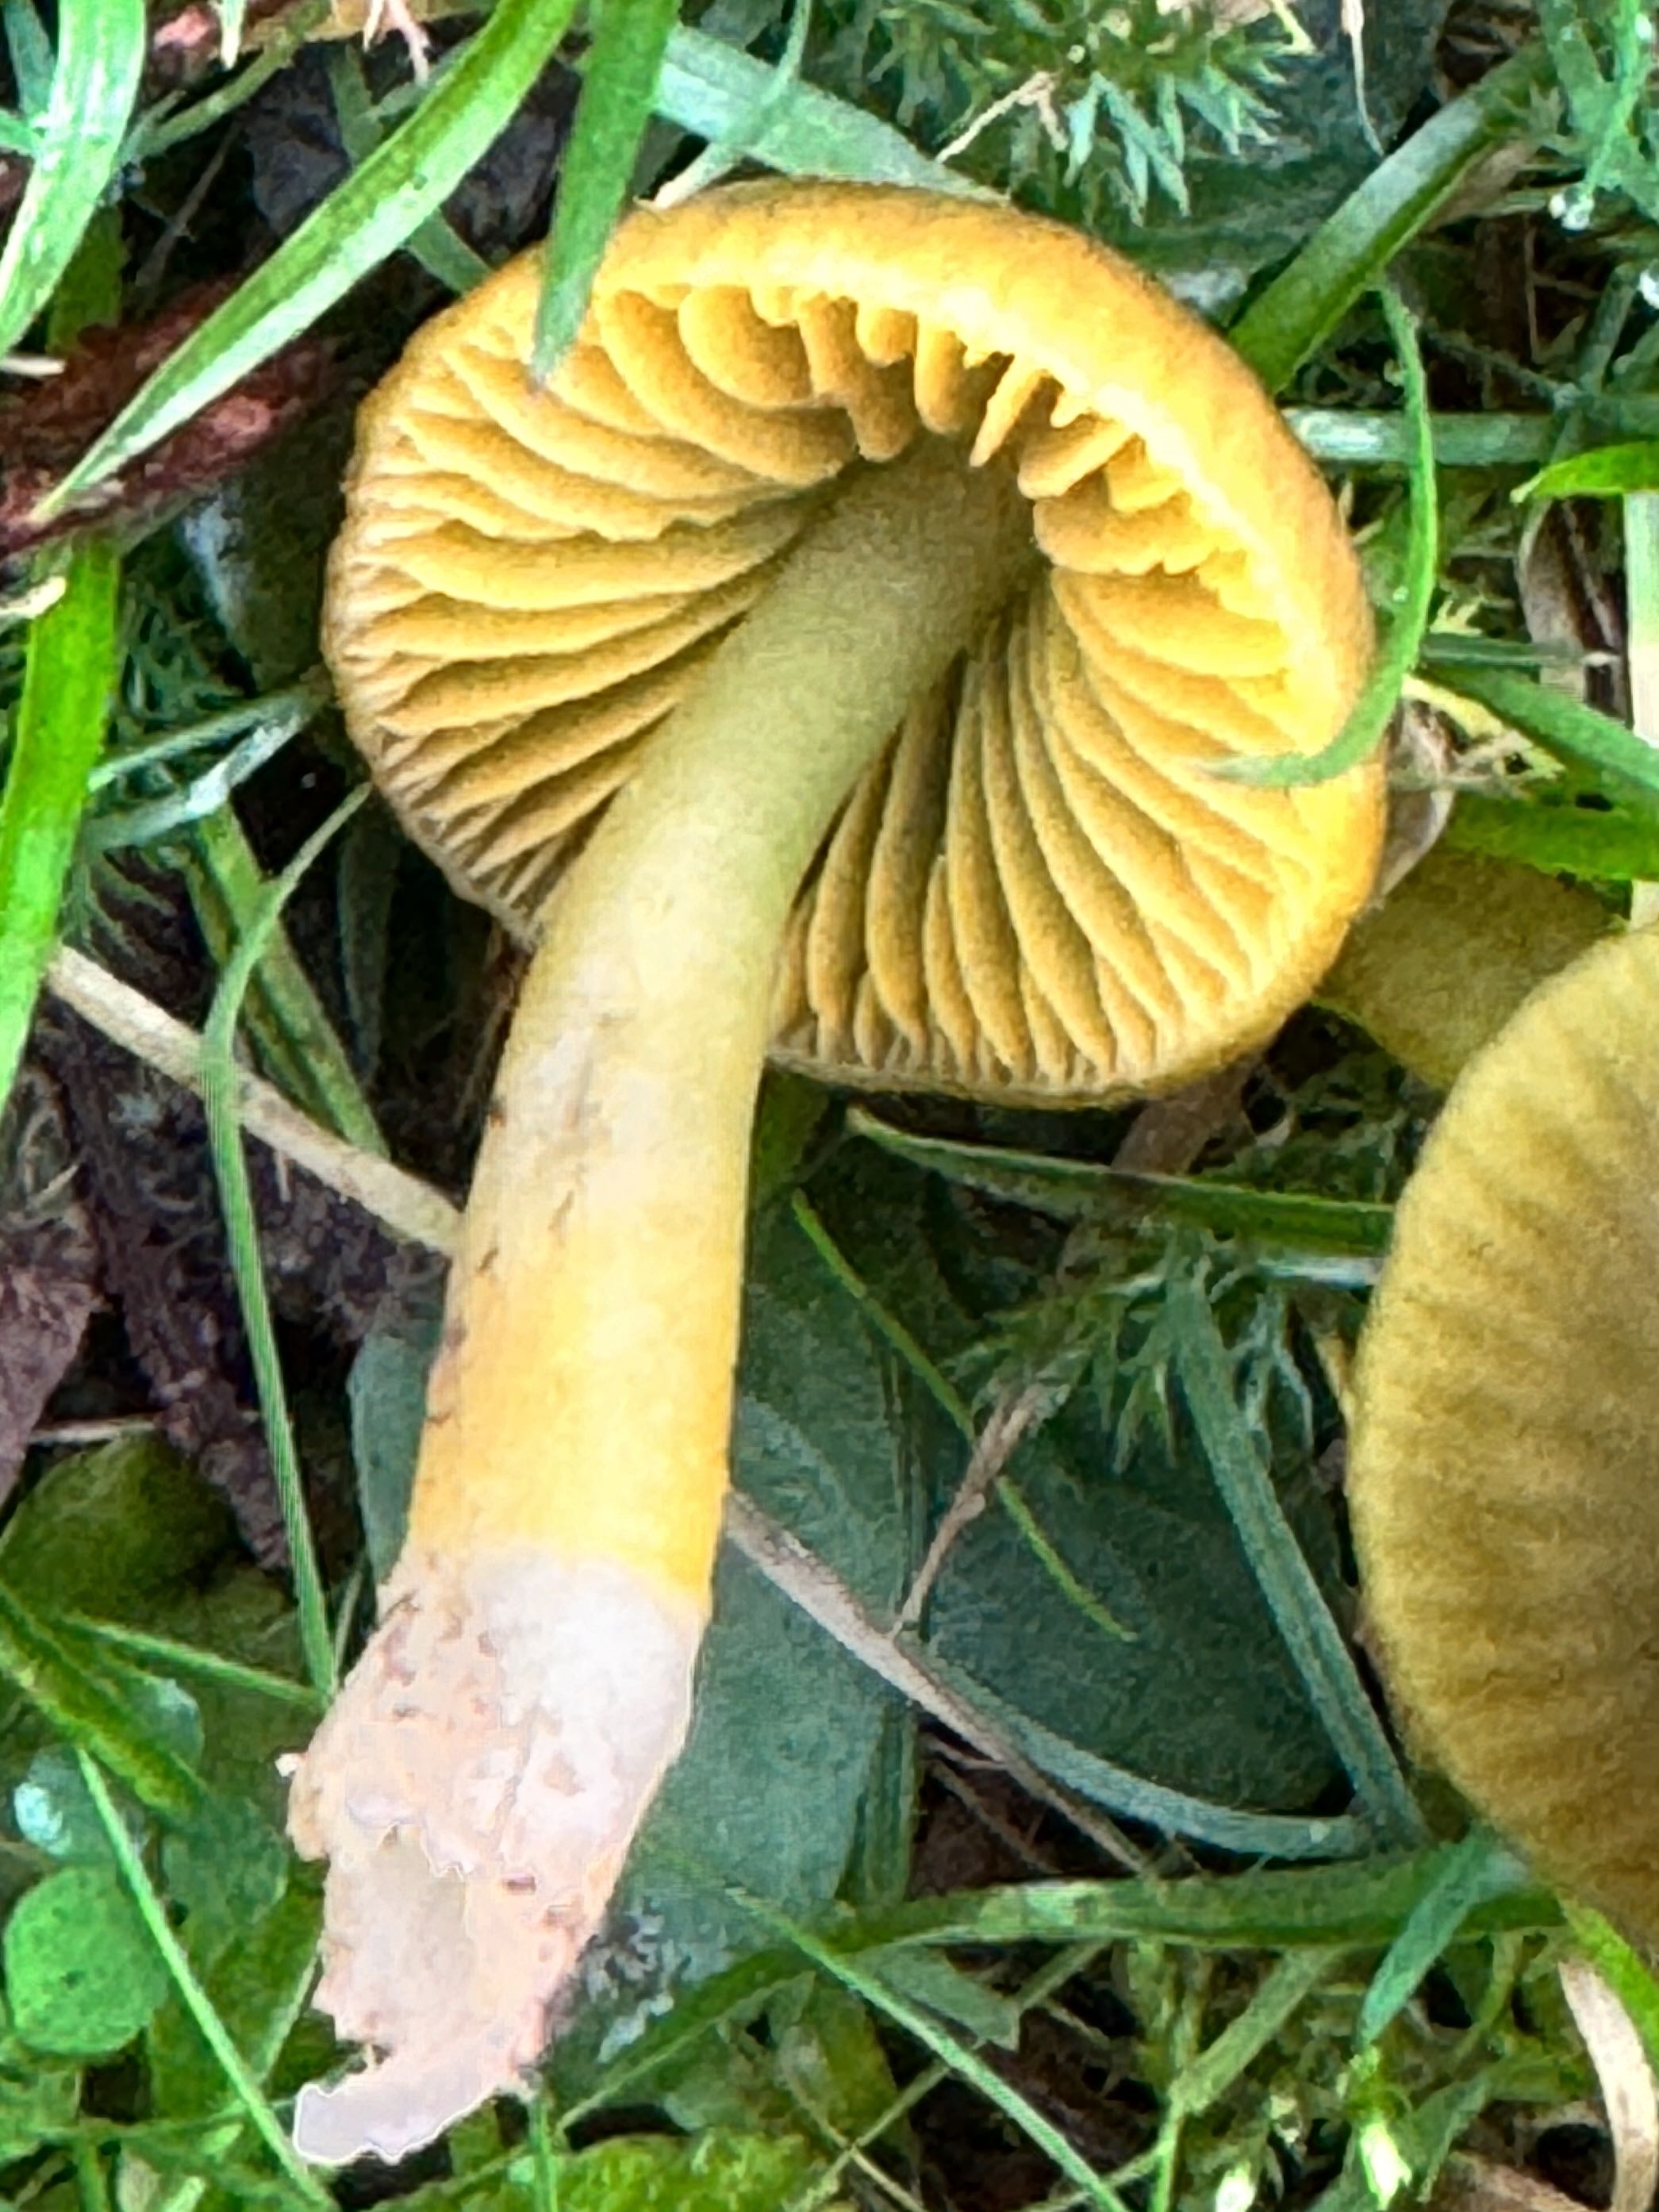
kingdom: Fungi
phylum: Basidiomycota
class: Agaricomycetes
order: Agaricales
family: Hygrophoraceae
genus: Gliophorus
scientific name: Gliophorus psittacinus
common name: papegøje-vokshat
